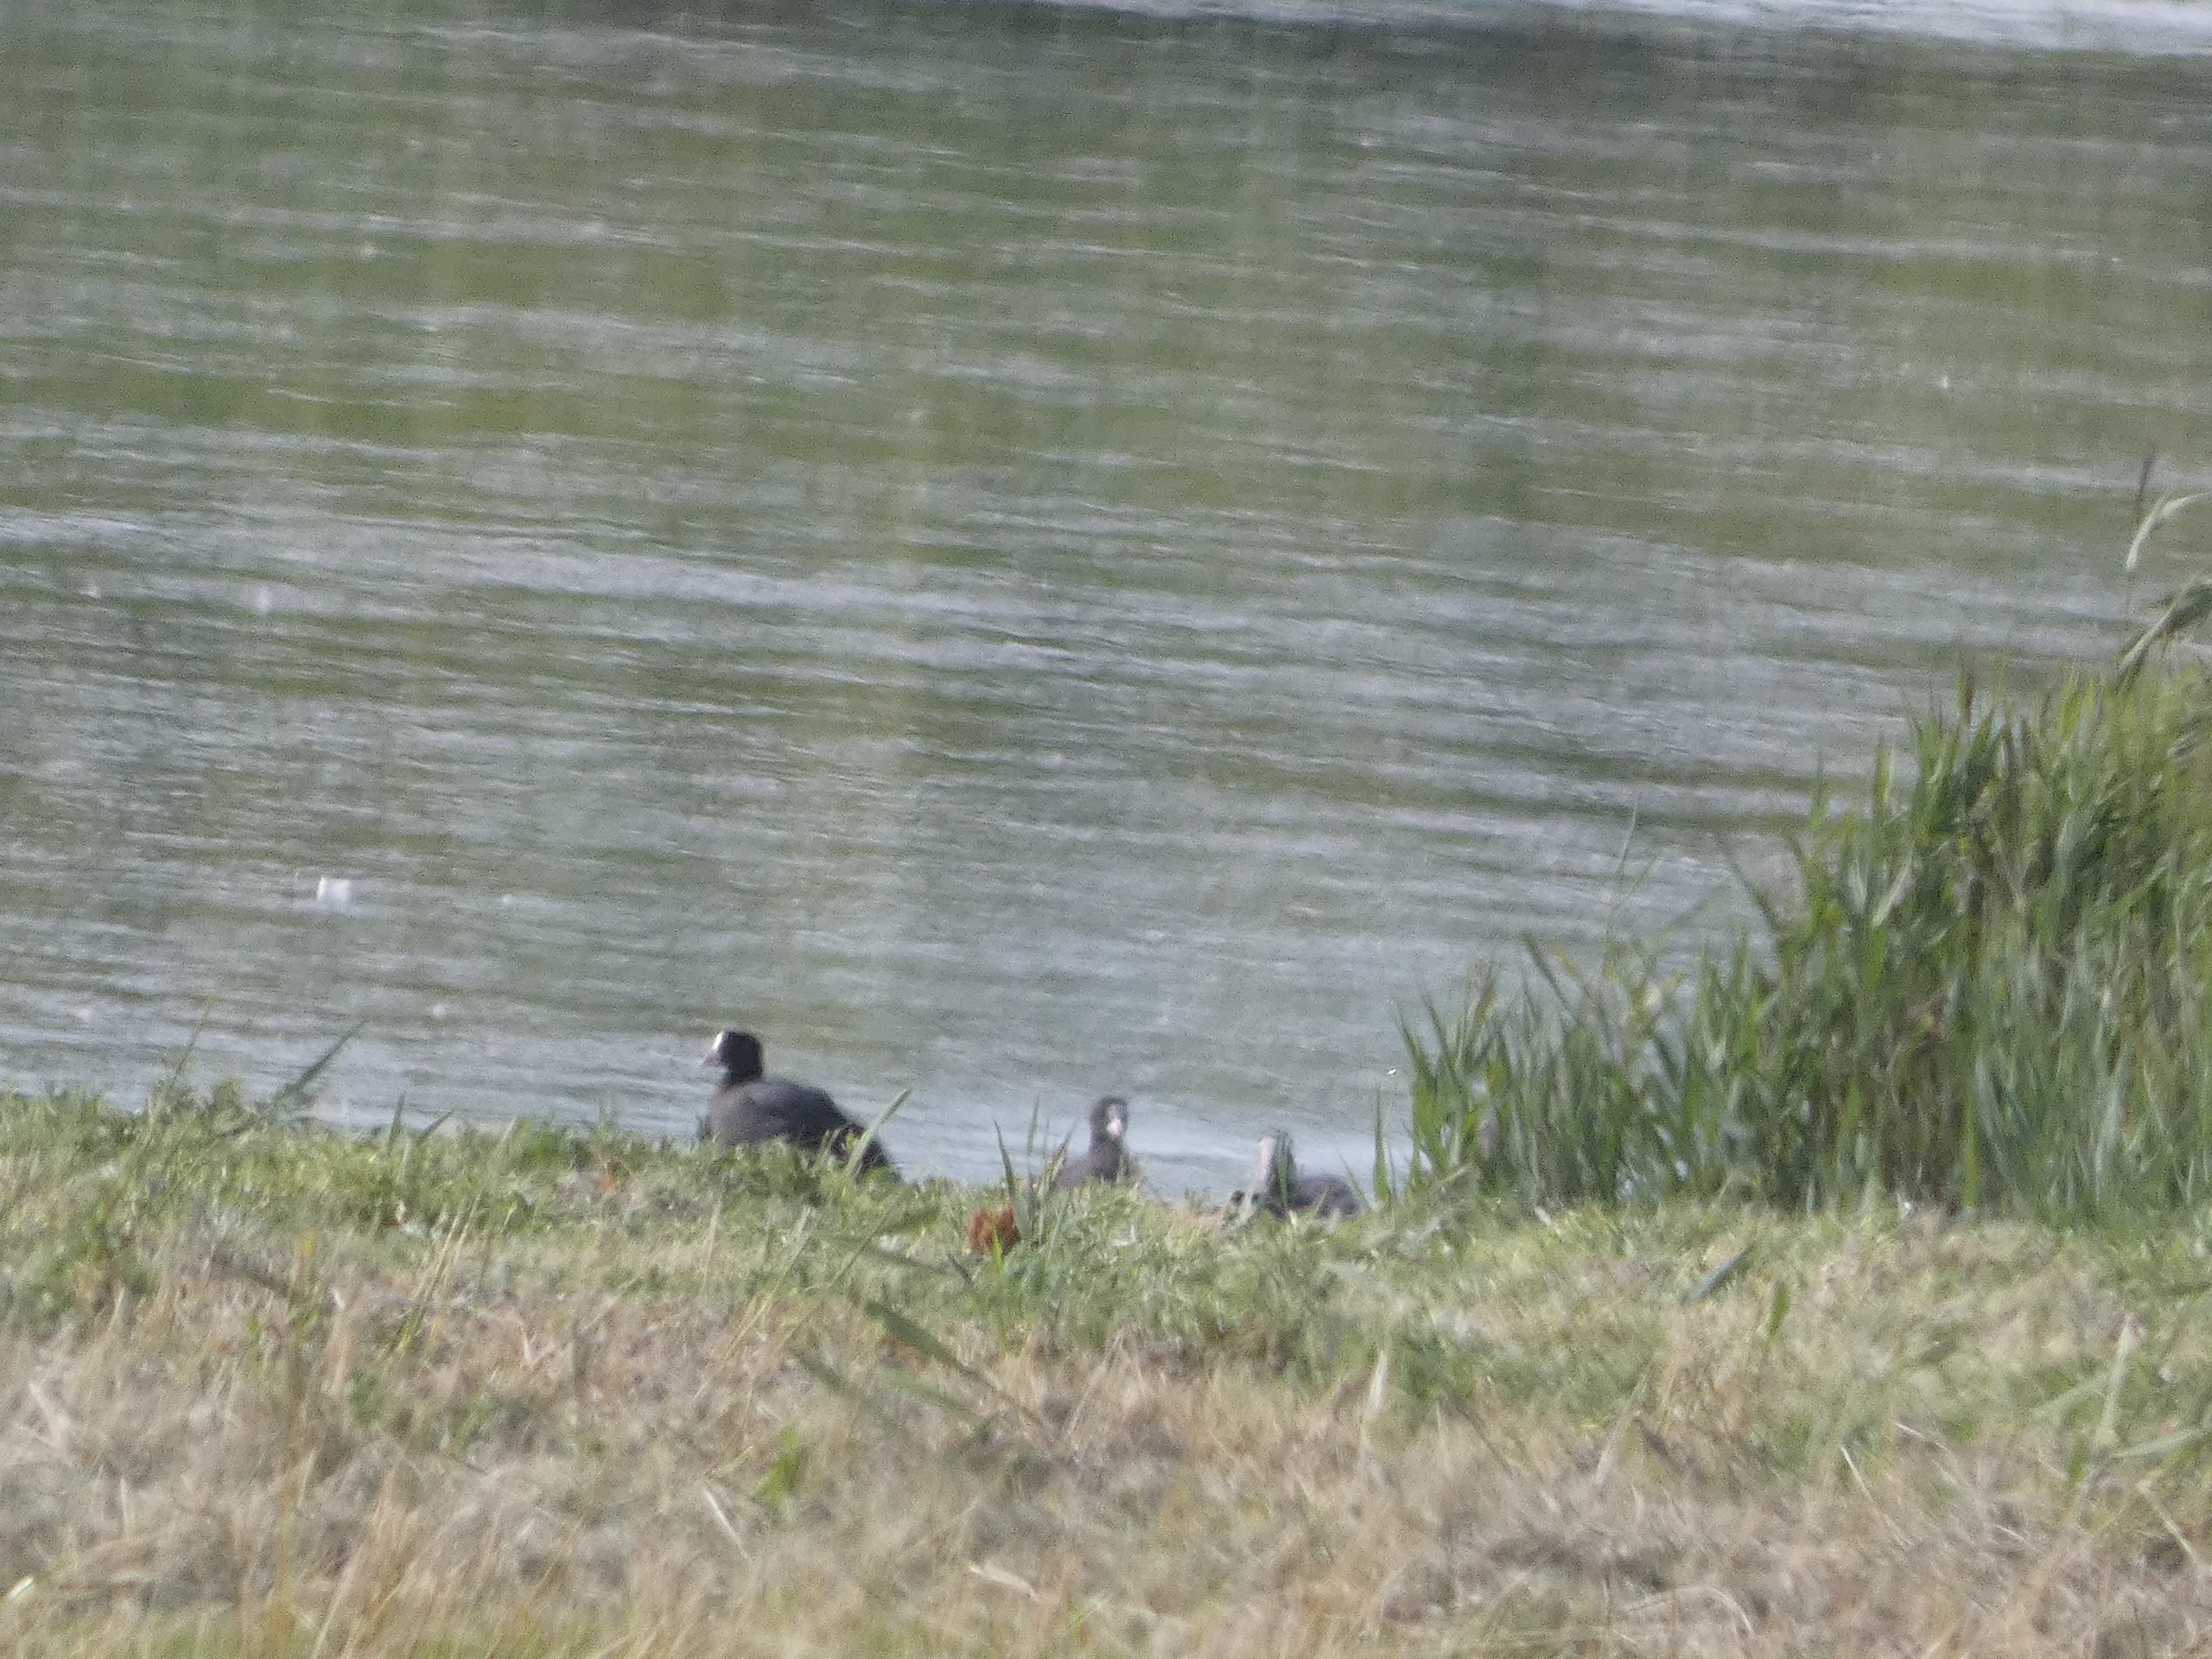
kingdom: Animalia
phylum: Chordata
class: Aves
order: Gruiformes
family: Rallidae
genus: Fulica
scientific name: Fulica atra
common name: Blishøne
